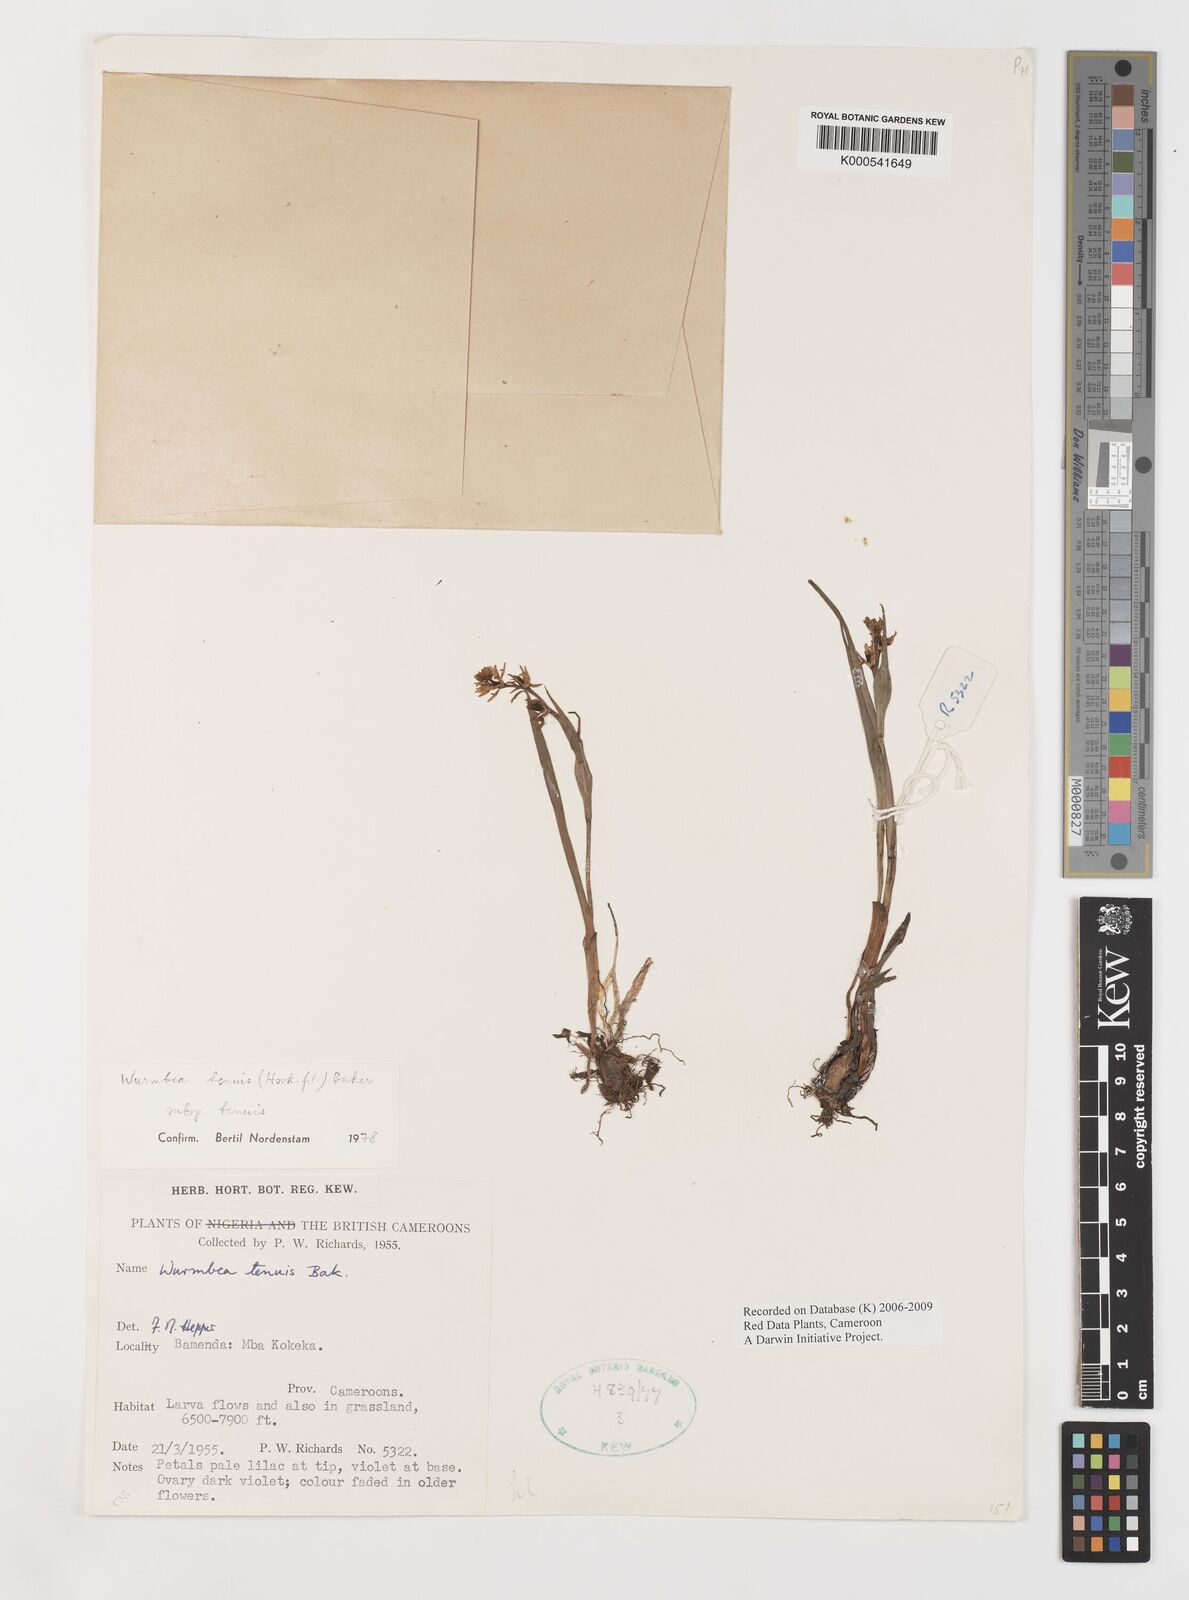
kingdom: Plantae
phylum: Tracheophyta
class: Liliopsida
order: Liliales
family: Colchicaceae
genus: Wurmbea
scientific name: Wurmbea tenuis
